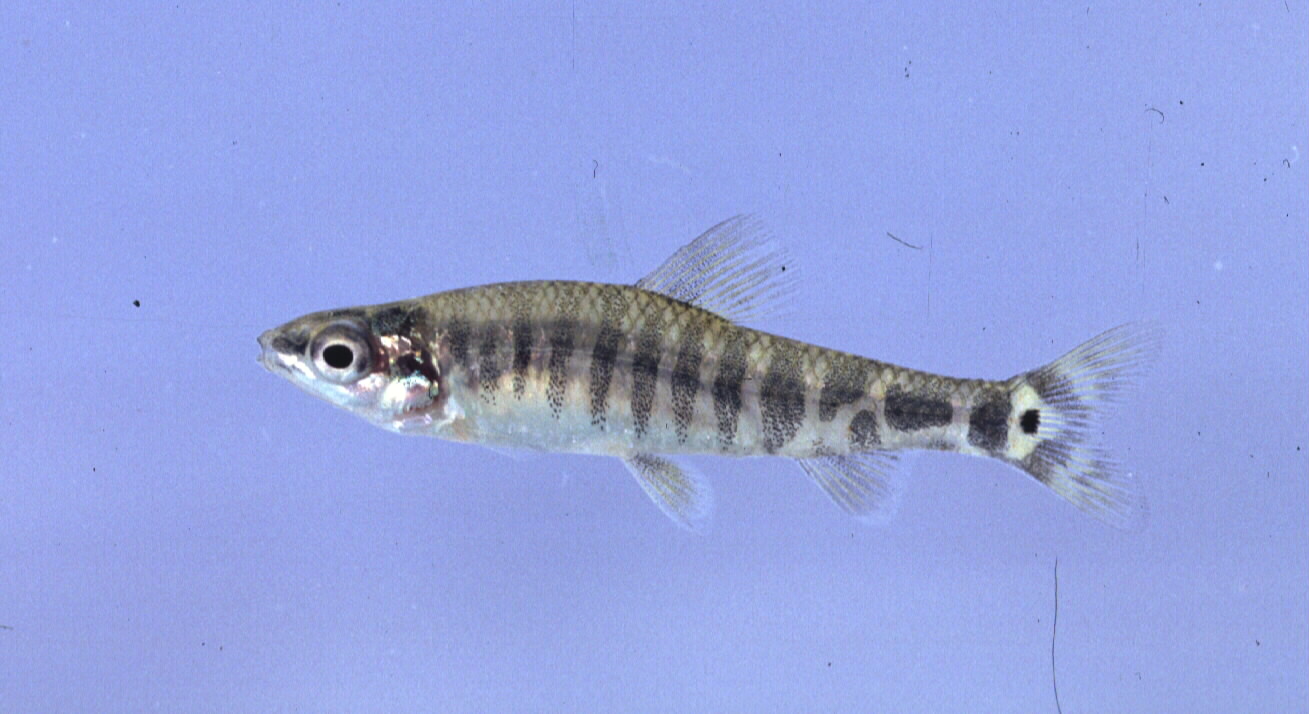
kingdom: Animalia
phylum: Chordata
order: Characiformes
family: Distichodontidae
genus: Nannocharax
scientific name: Nannocharax machadoi
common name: Dwarf citharine
